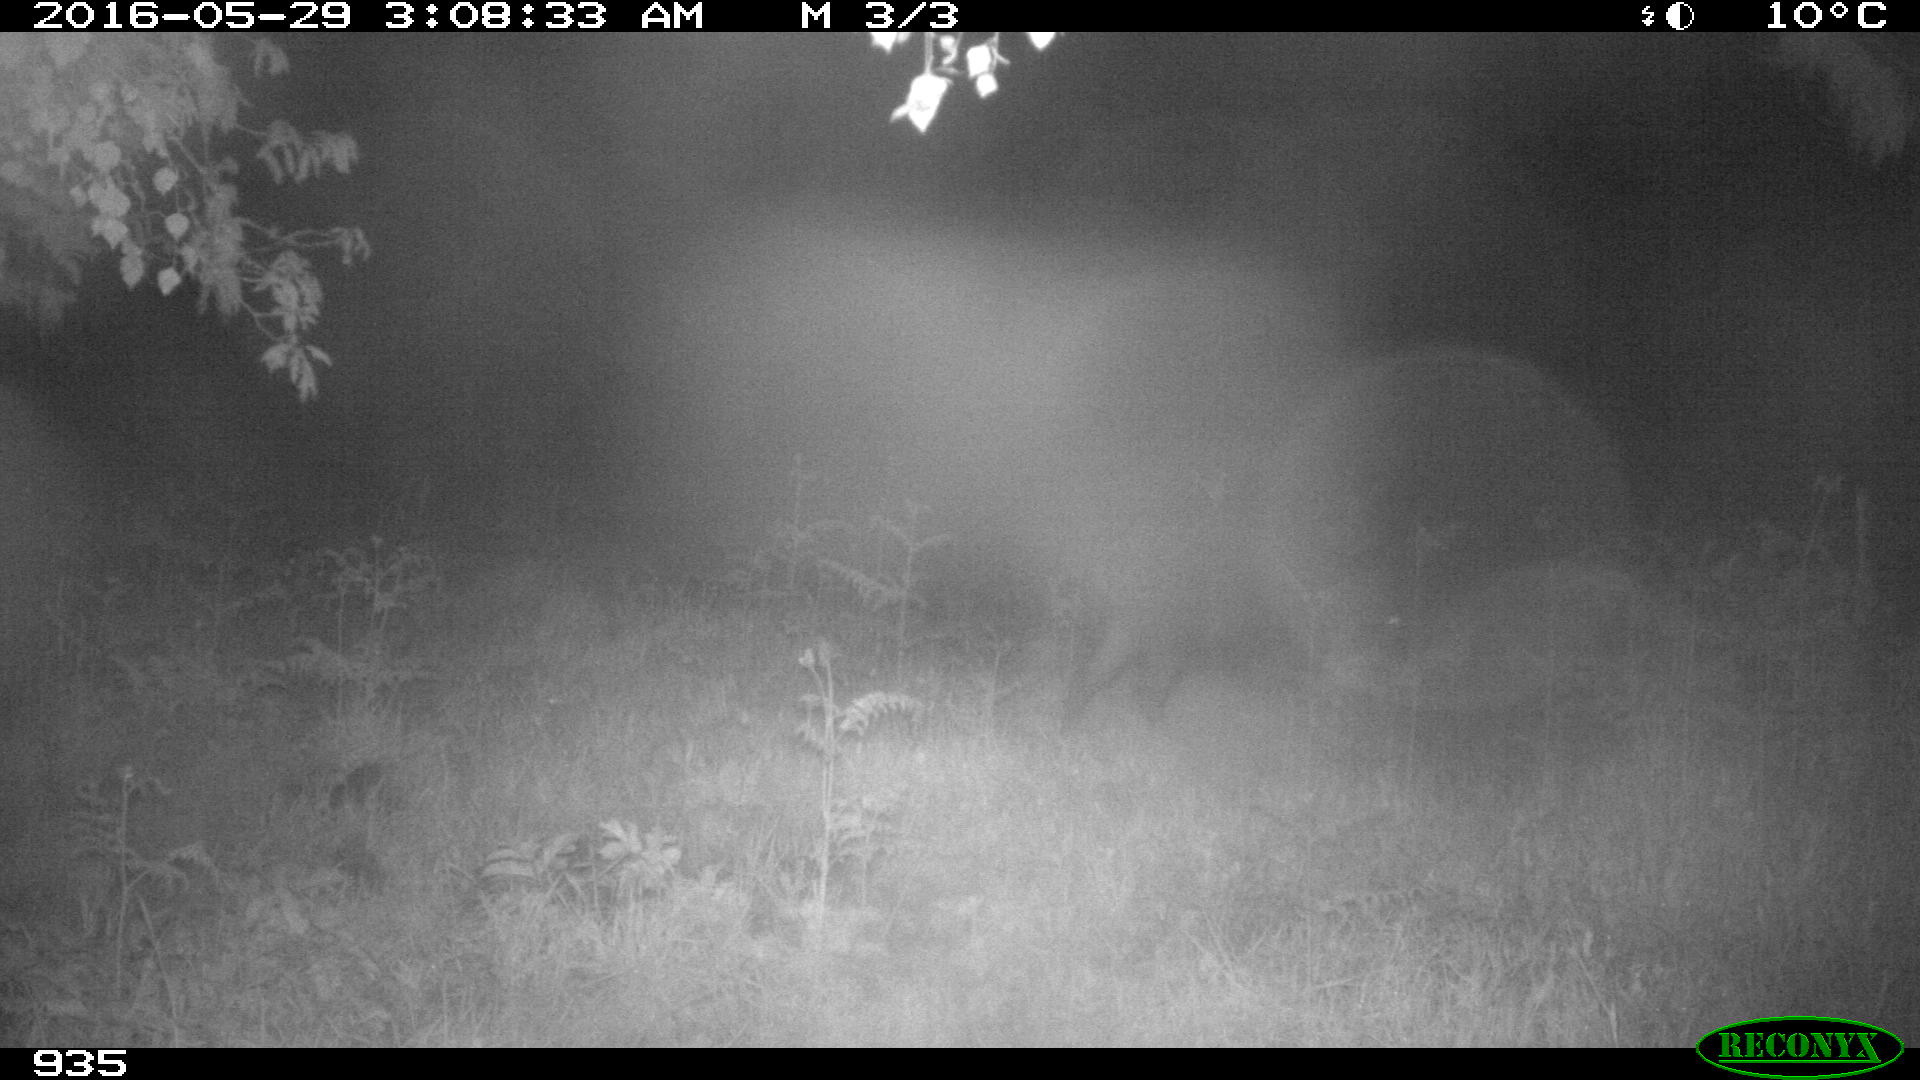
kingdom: Animalia
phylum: Chordata
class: Mammalia
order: Artiodactyla
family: Suidae
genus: Sus
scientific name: Sus scrofa
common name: Wild boar
